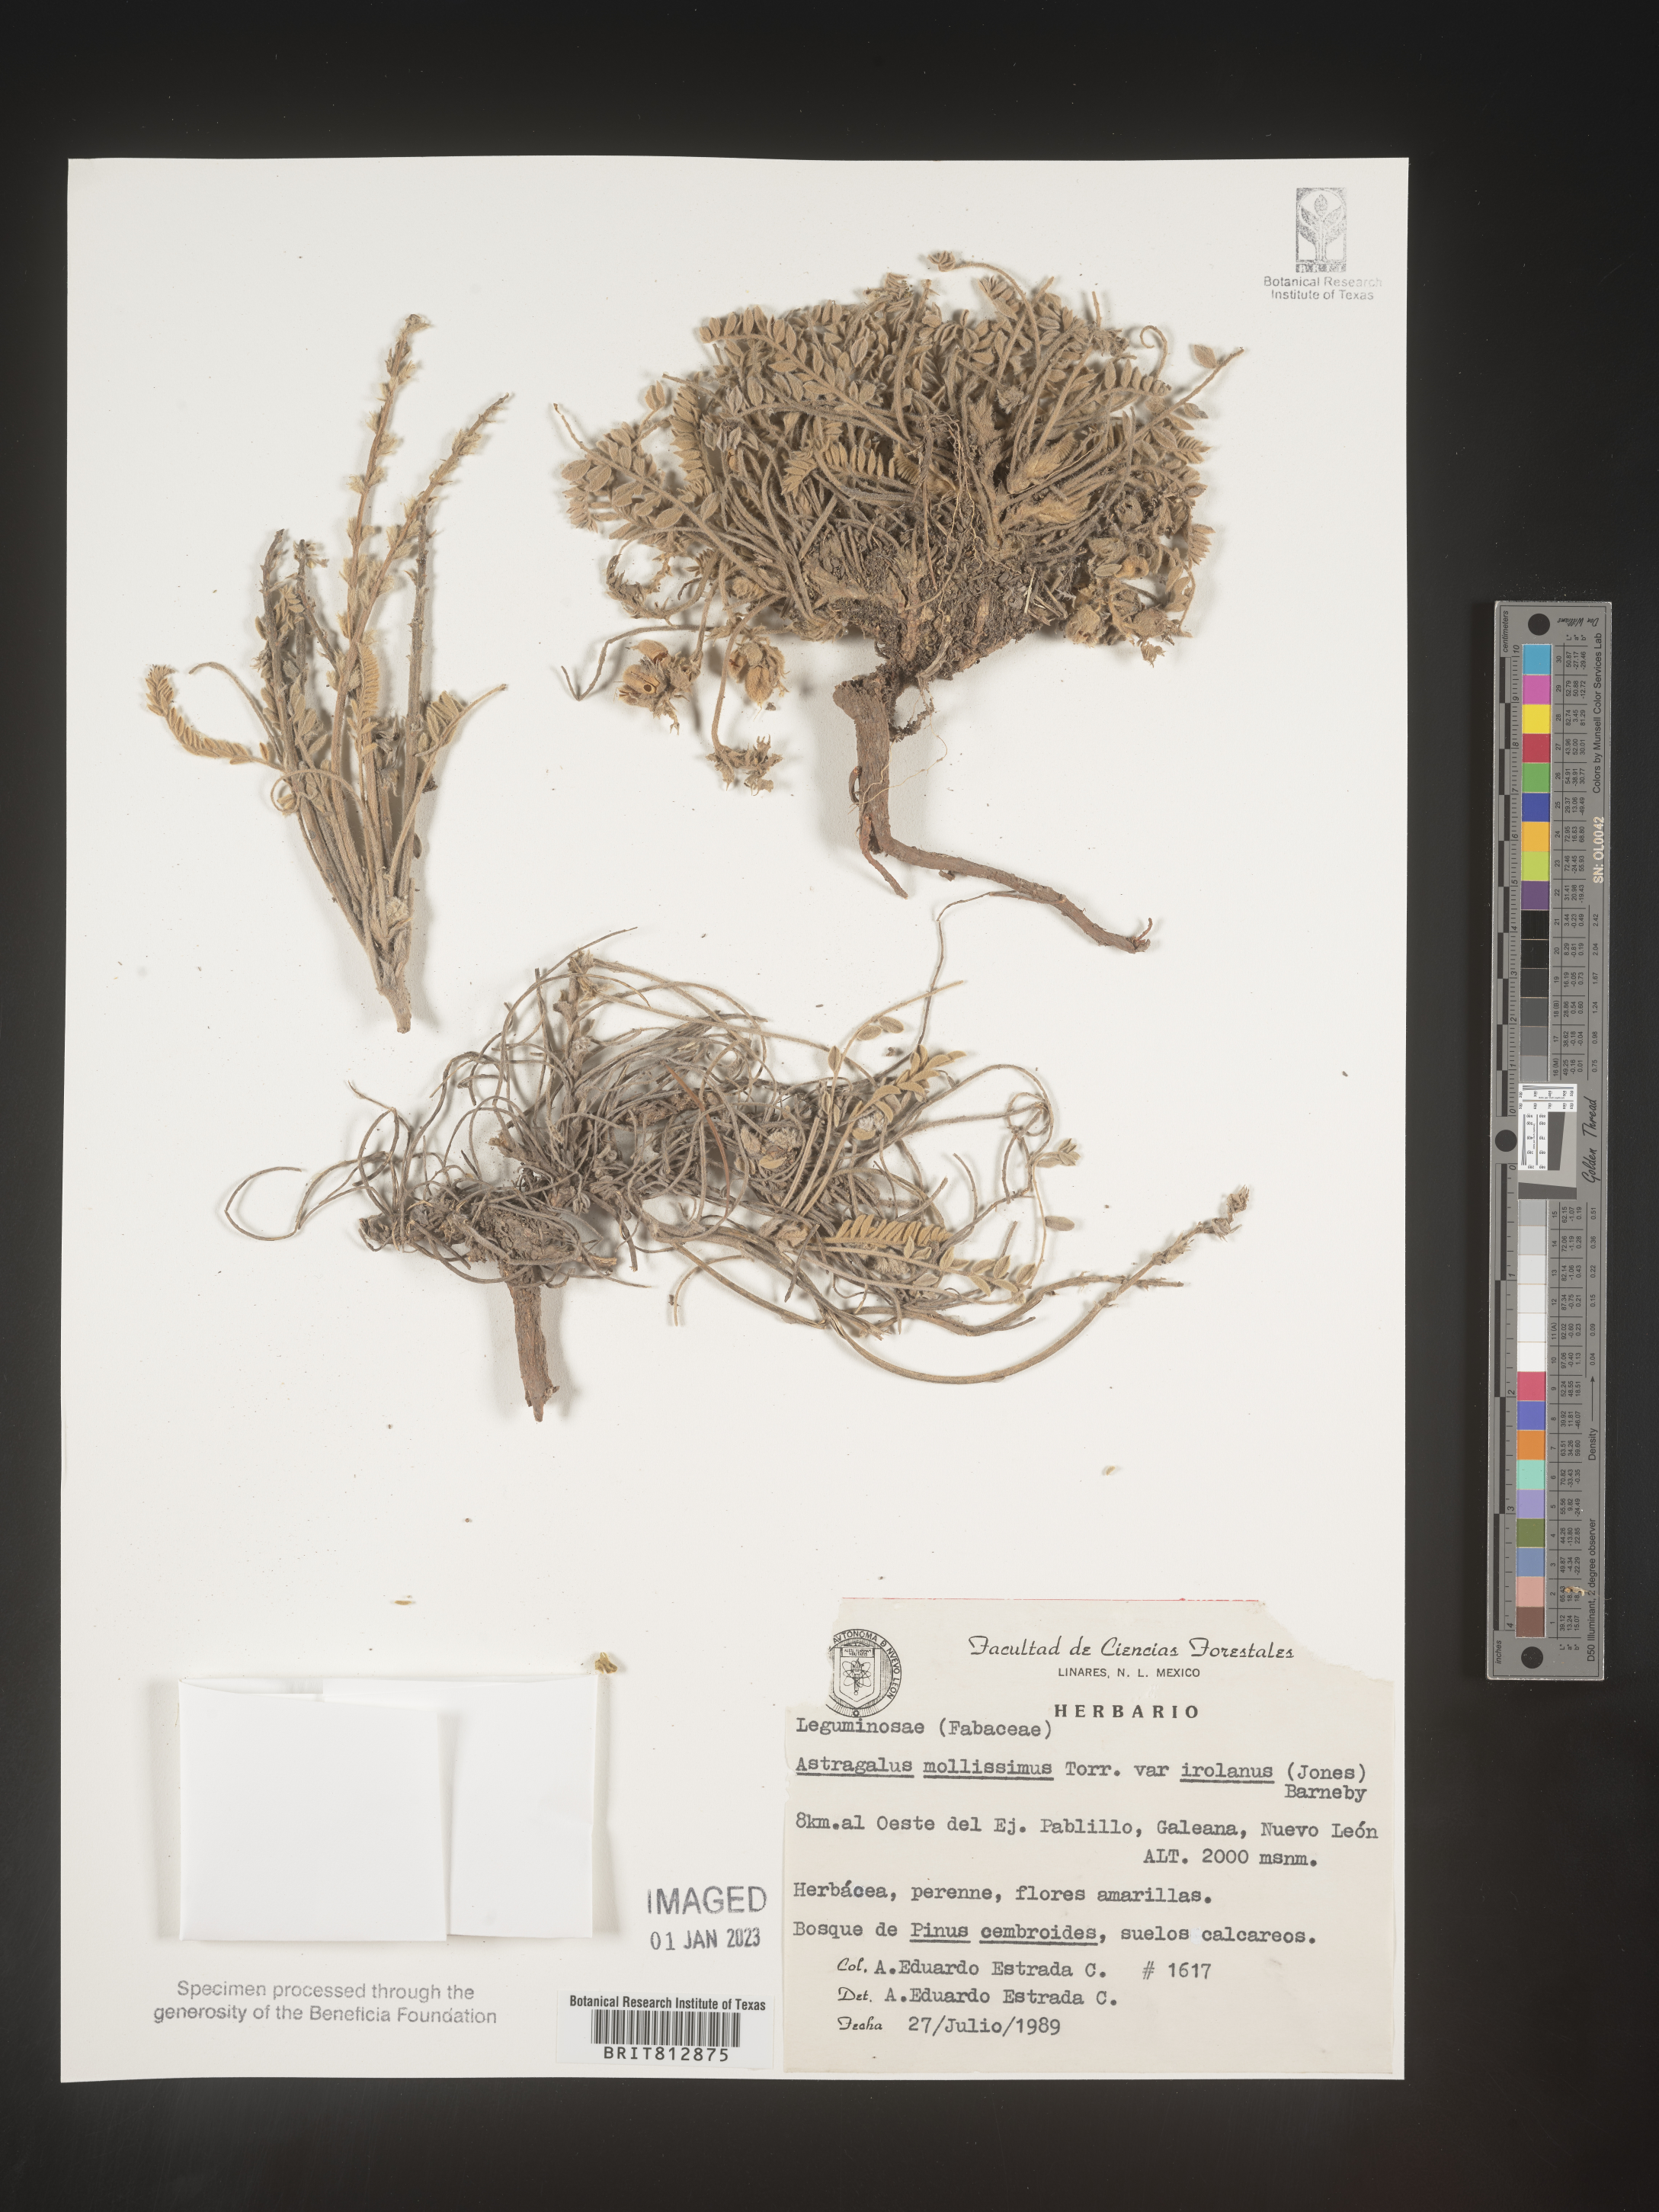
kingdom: Plantae
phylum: Tracheophyta
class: Magnoliopsida
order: Fabales
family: Fabaceae
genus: Astragalus
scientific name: Astragalus
